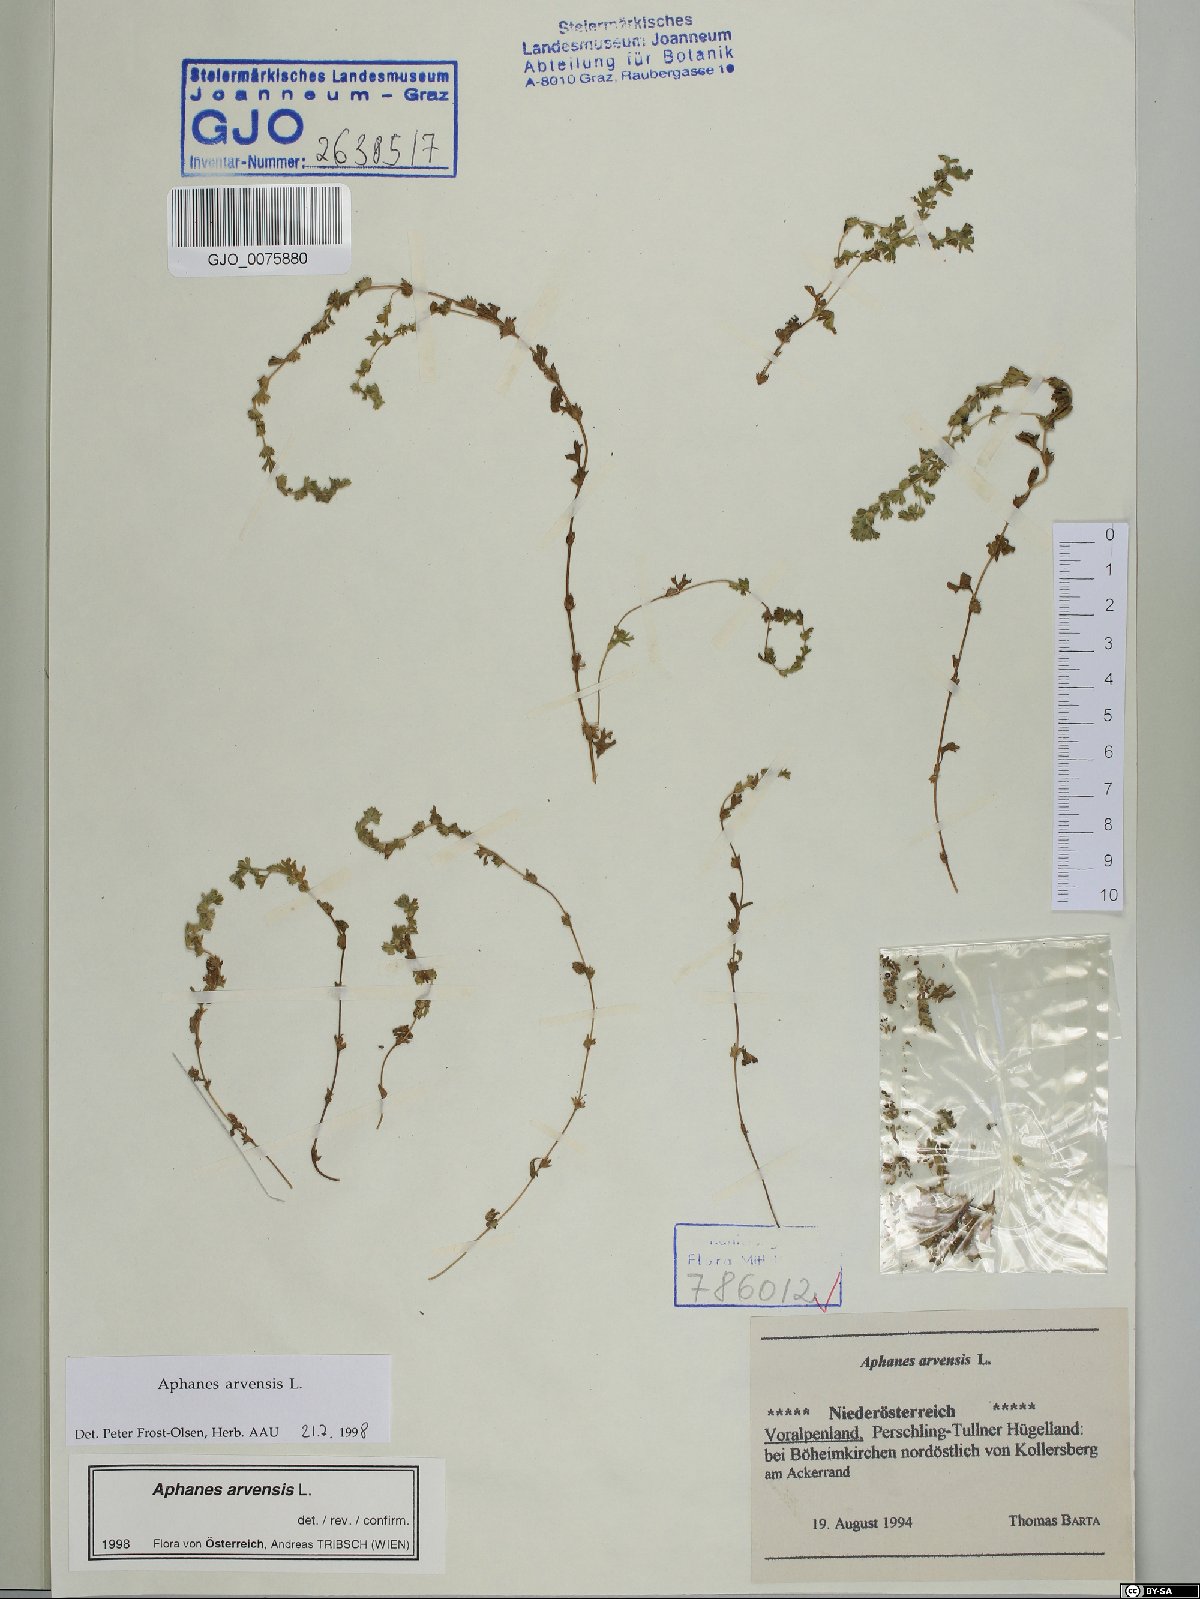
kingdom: Plantae
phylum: Tracheophyta
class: Magnoliopsida
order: Rosales
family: Rosaceae
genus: Aphanes
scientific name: Aphanes arvensis
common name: Parsley-piert
